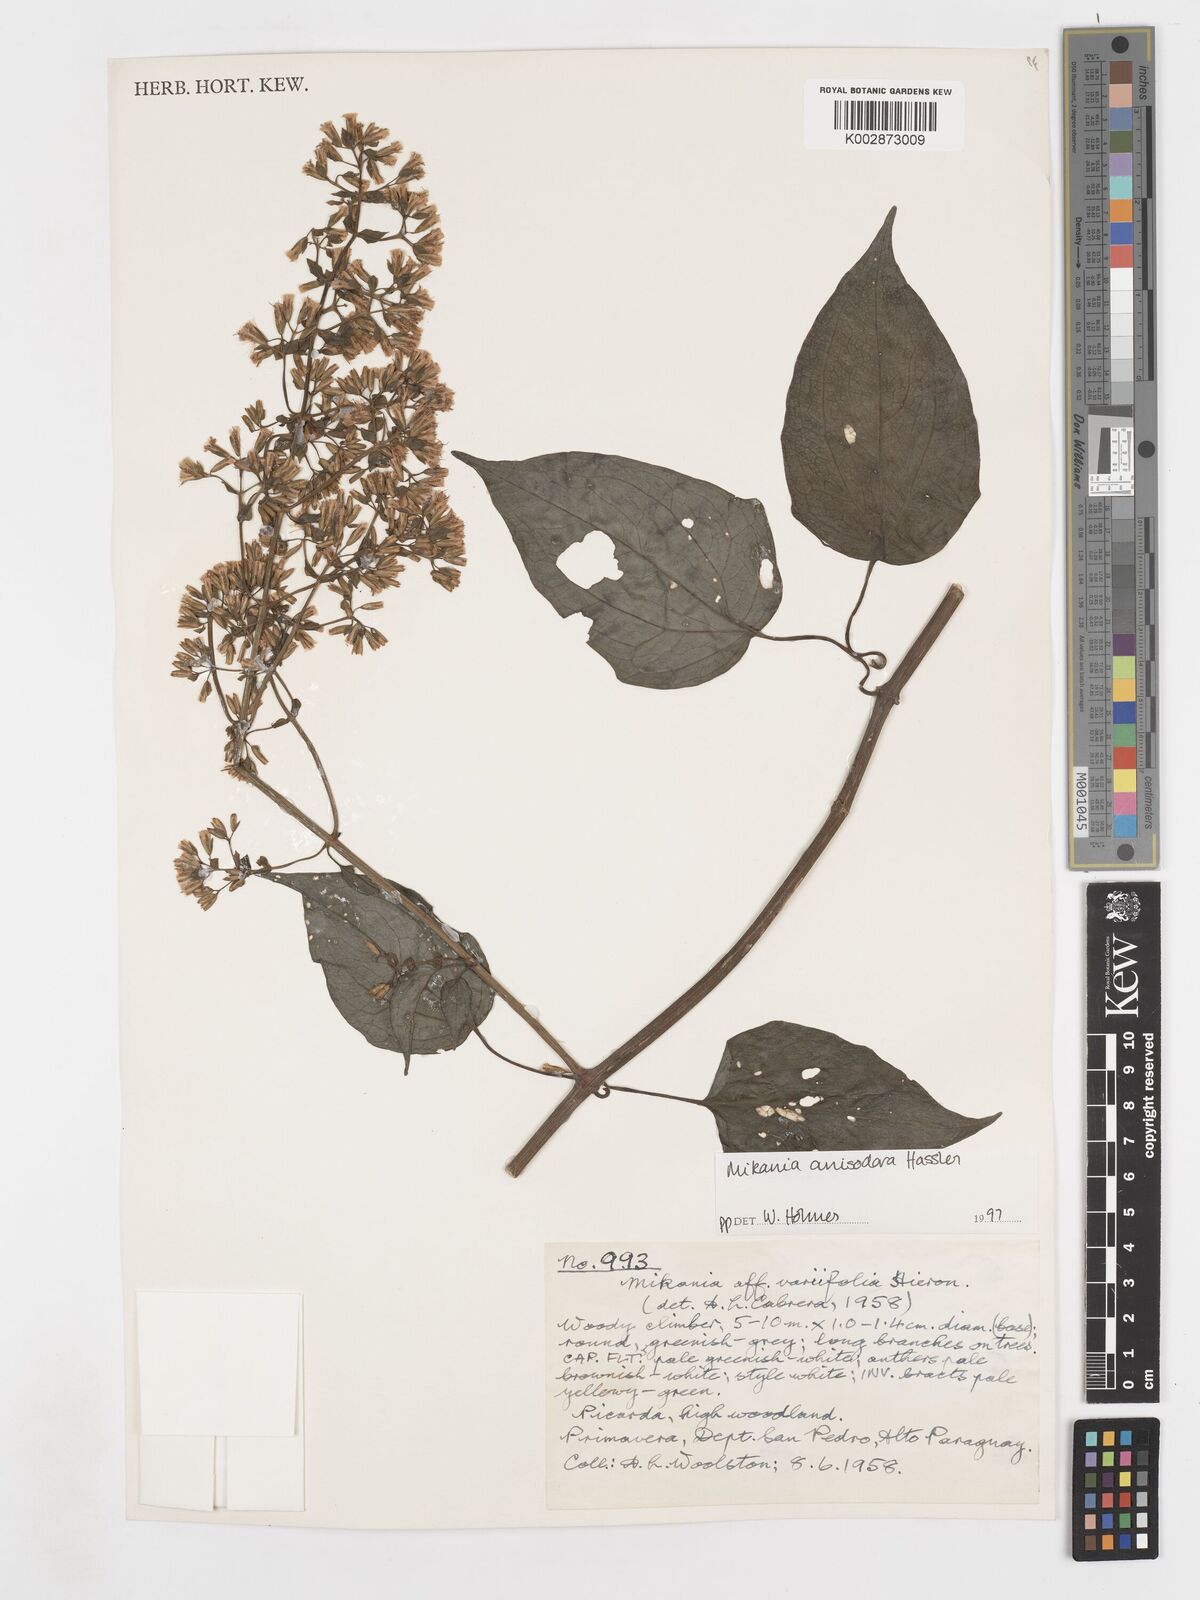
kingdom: Plantae
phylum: Tracheophyta
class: Magnoliopsida
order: Asterales
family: Asteraceae
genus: Mikania
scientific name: Mikania anisodora
